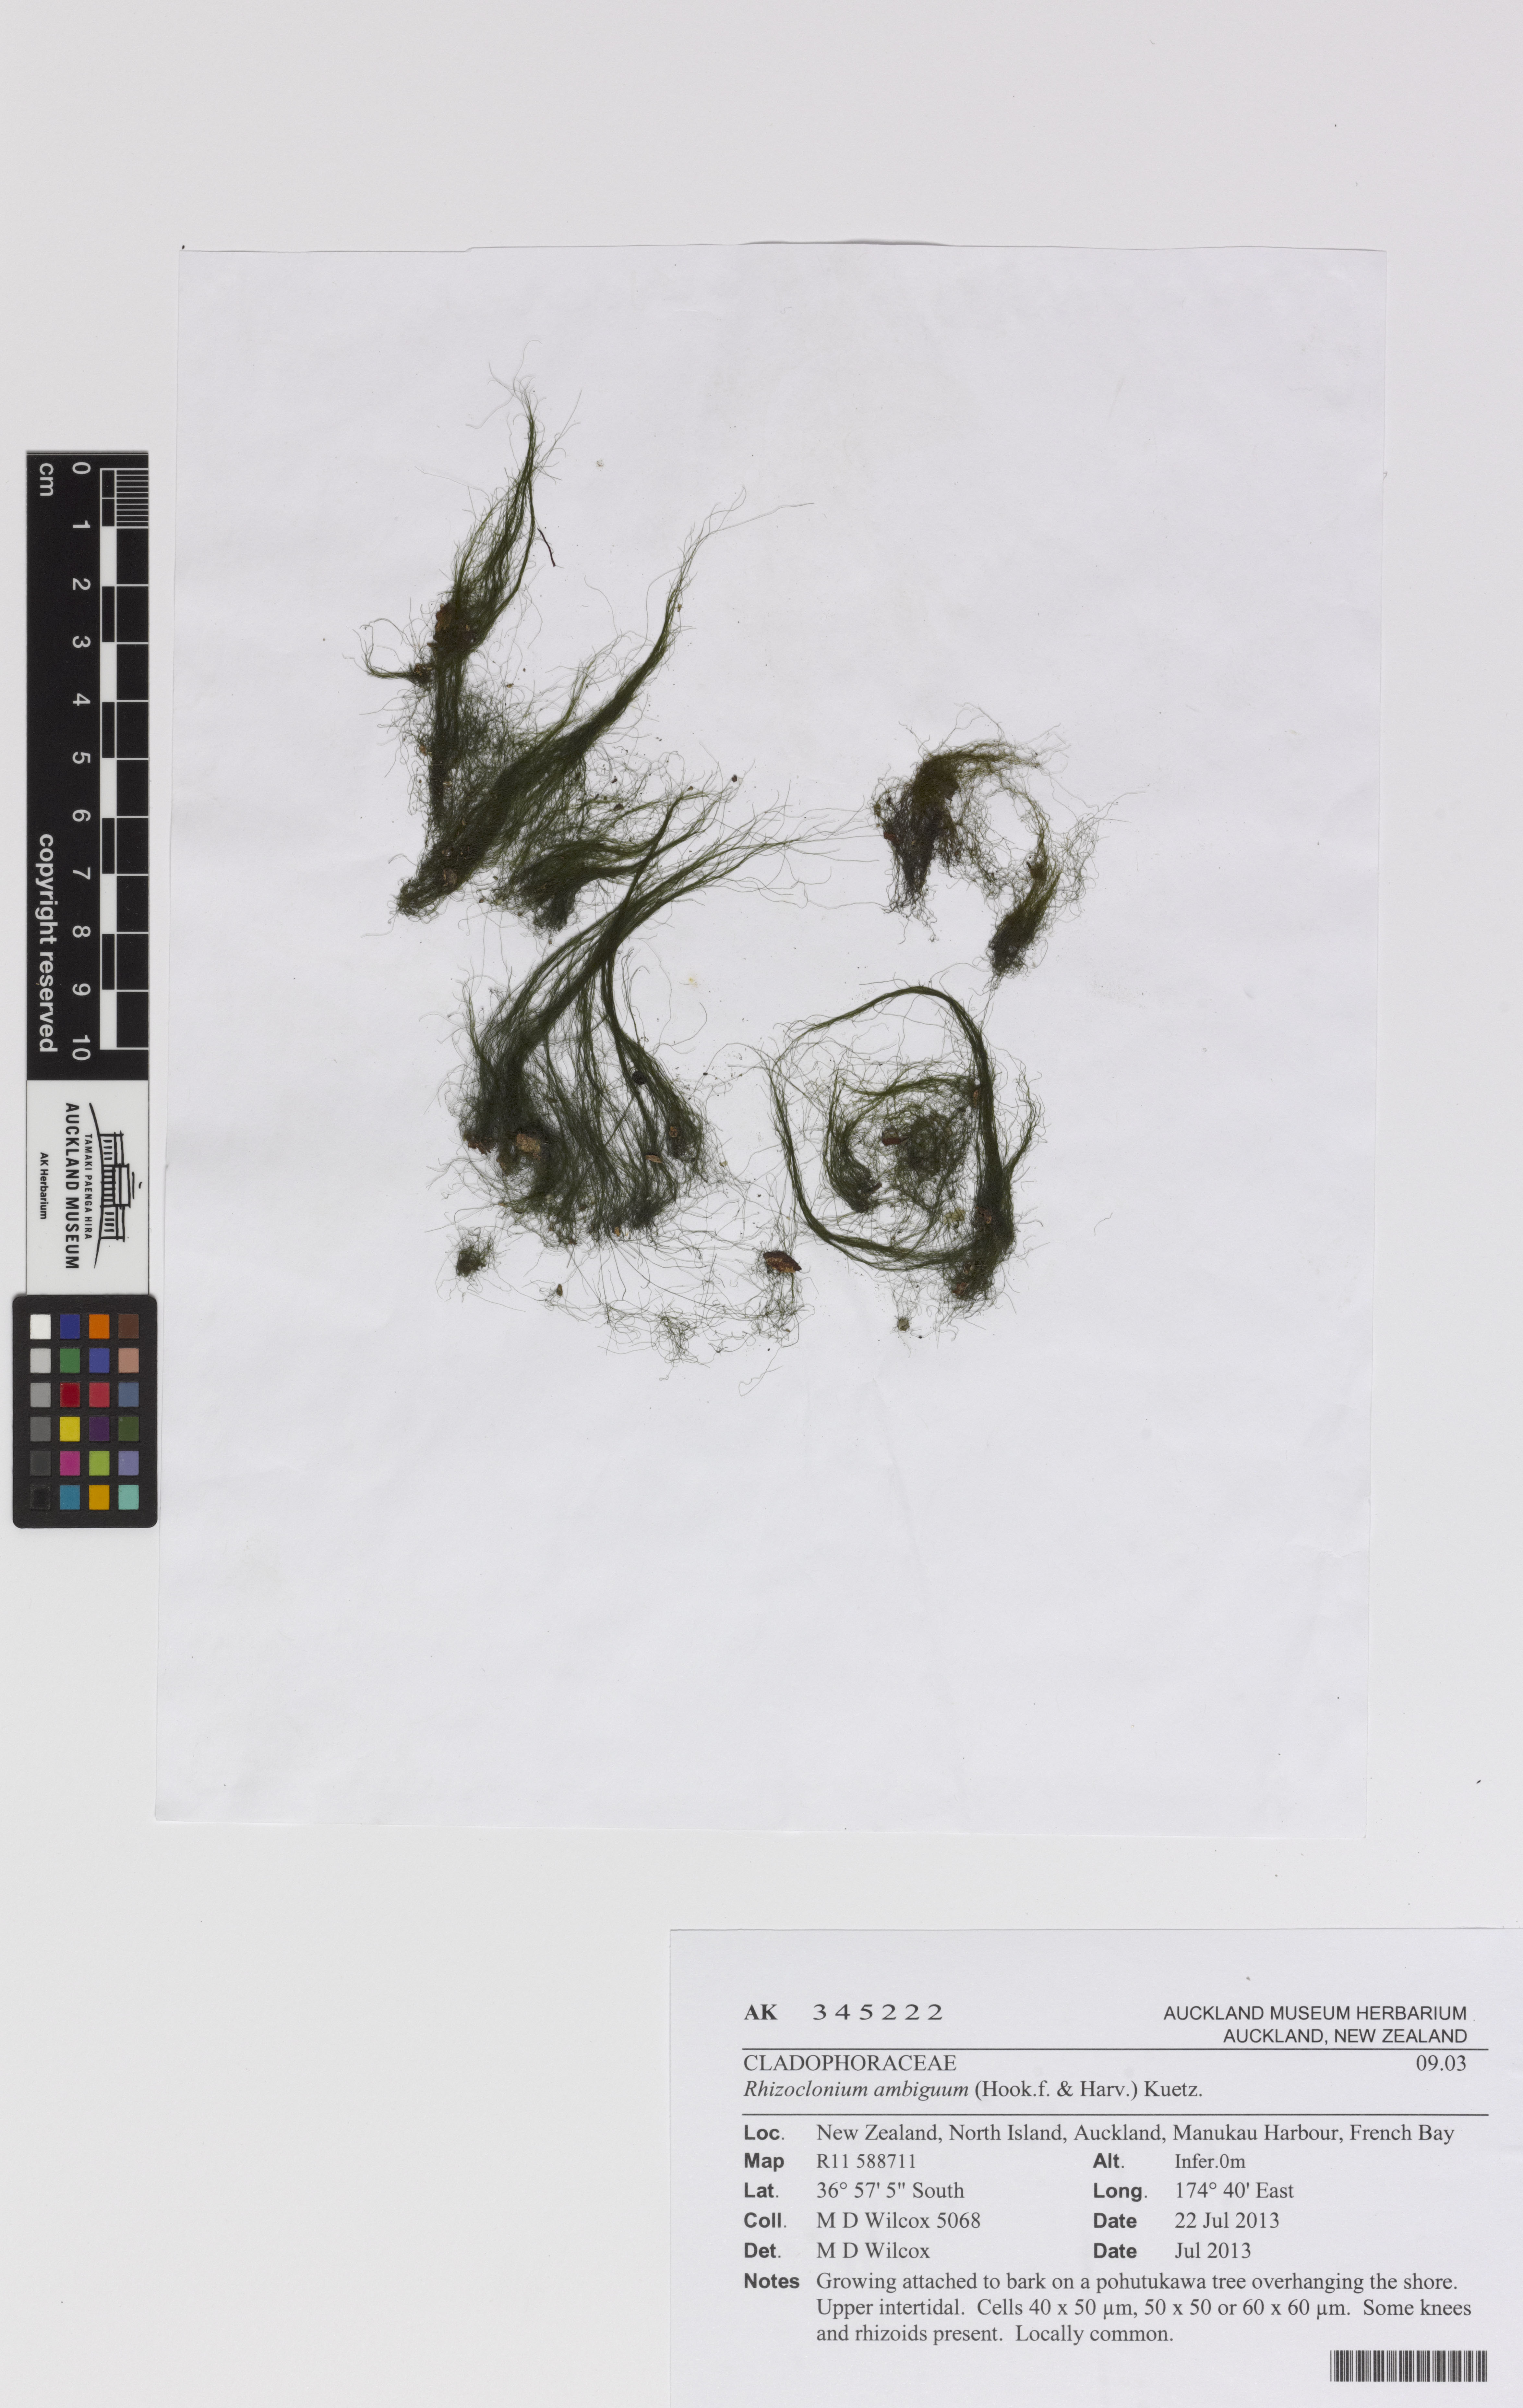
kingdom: Plantae
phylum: Chlorophyta
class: Ulvophyceae
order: Cladophorales
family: Cladophoraceae
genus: Pseudorhizoclonium
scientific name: Pseudorhizoclonium
